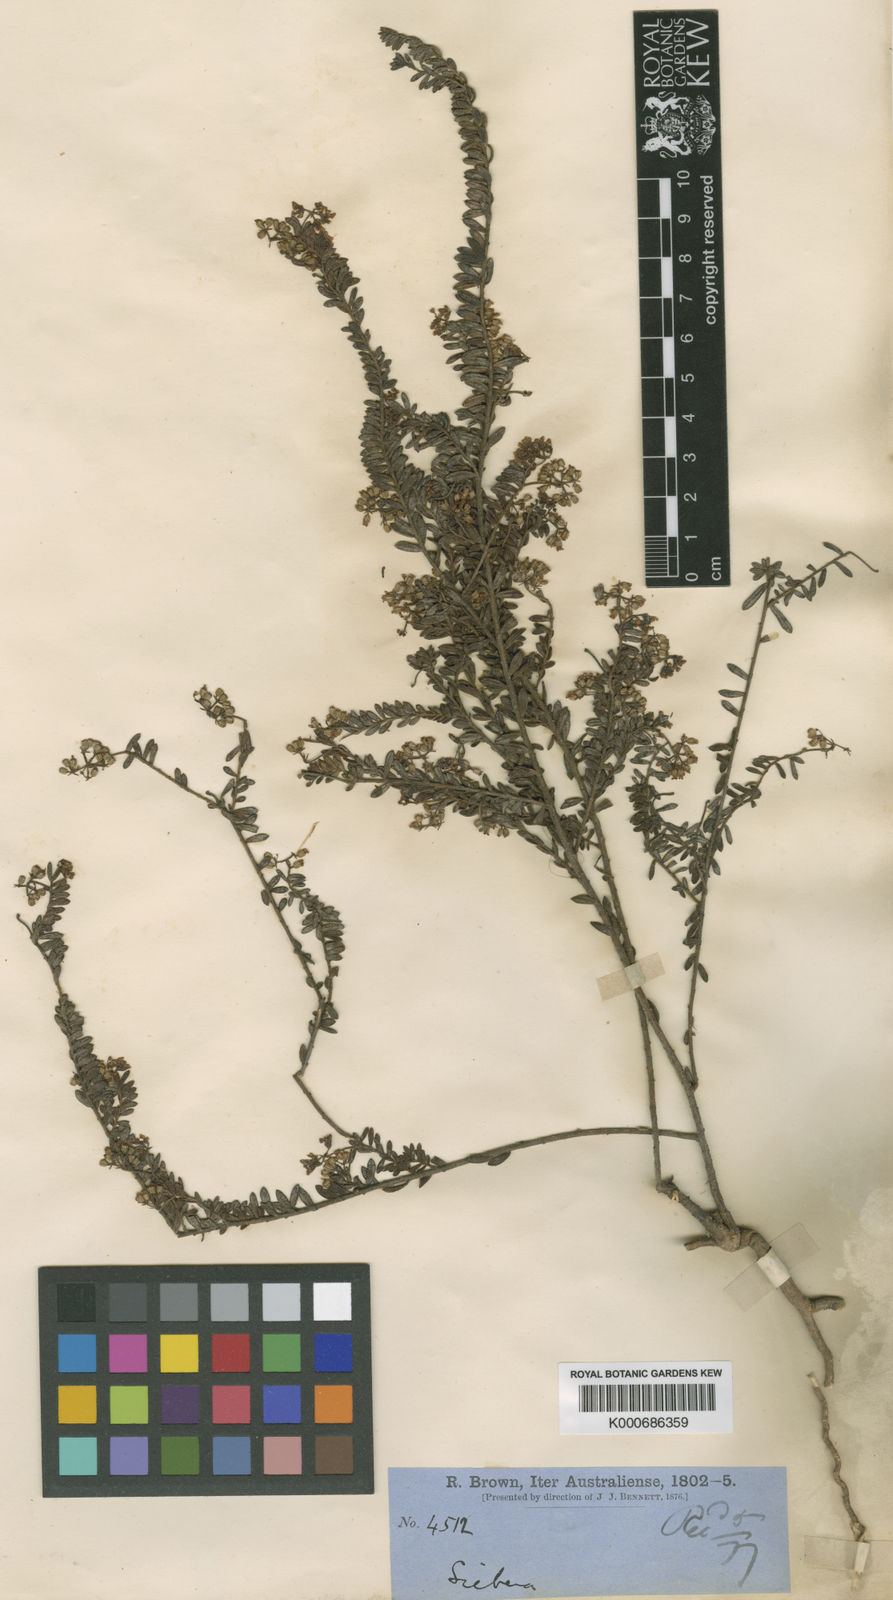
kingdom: Plantae
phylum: Tracheophyta
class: Magnoliopsida
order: Apiales
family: Apiaceae
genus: Platysace
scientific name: Platysace lanceolata
